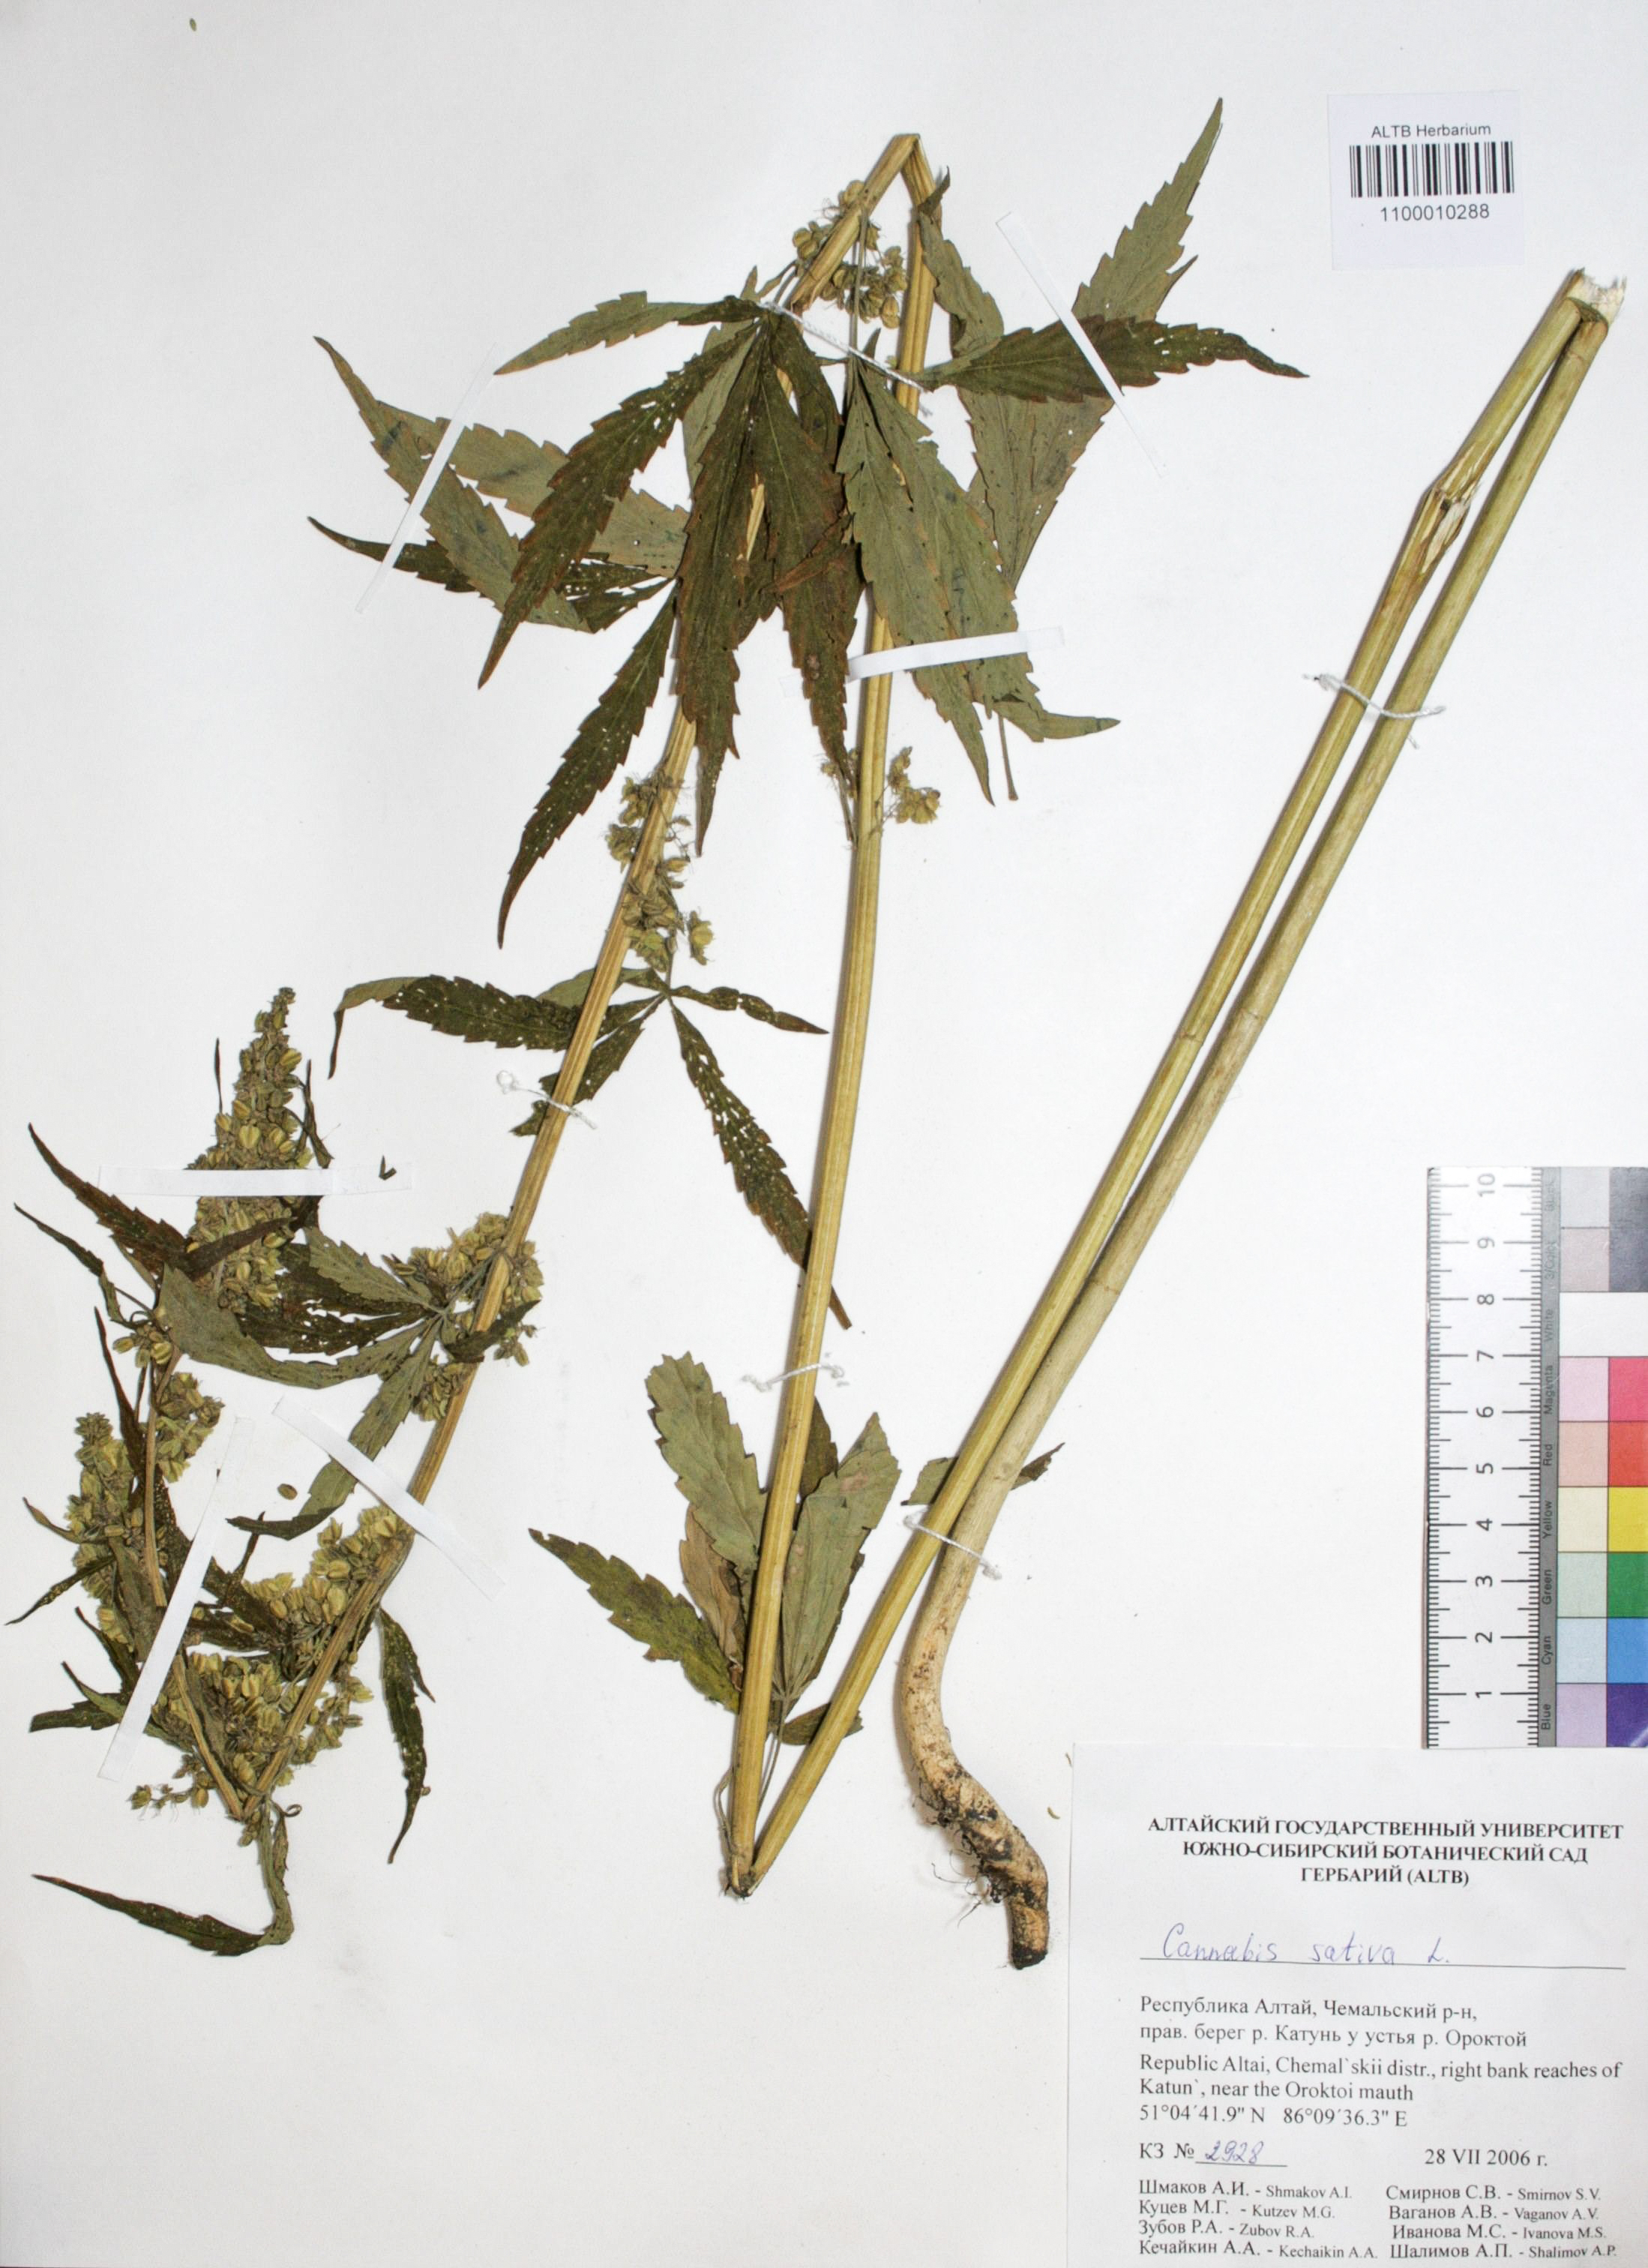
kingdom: Plantae
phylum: Tracheophyta
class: Magnoliopsida
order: Rosales
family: Cannabaceae
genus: Cannabis
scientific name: Cannabis sativa
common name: Hemp
